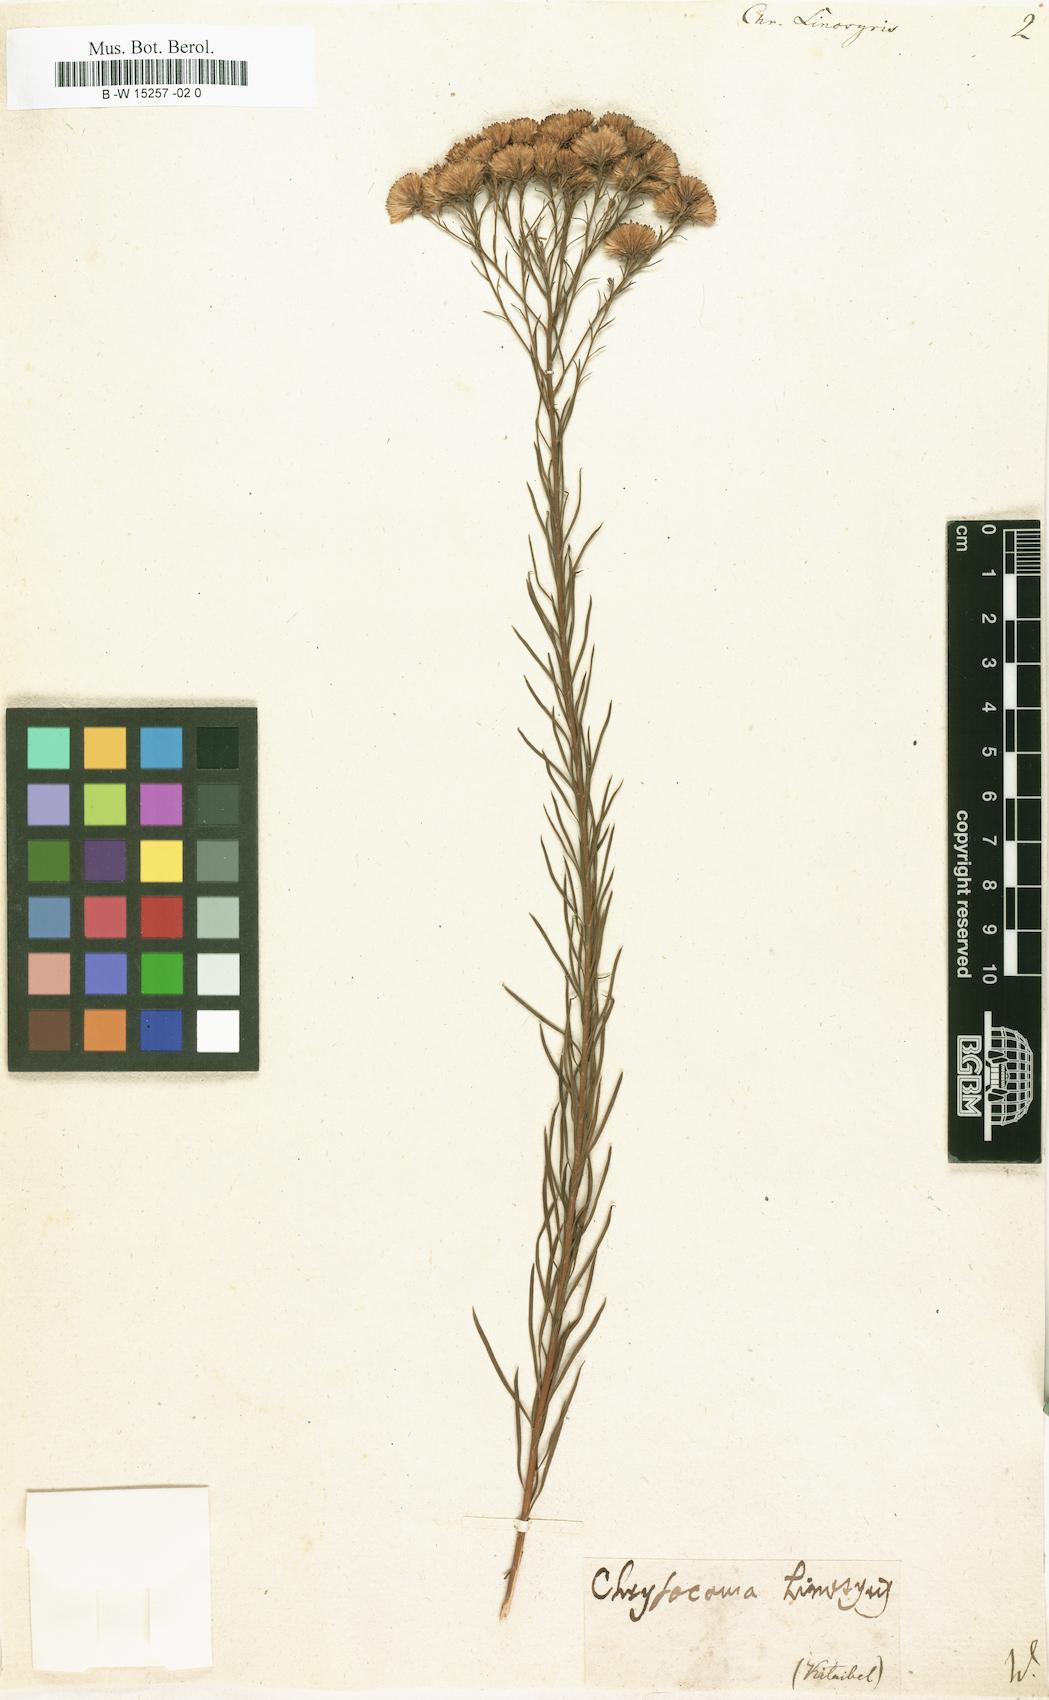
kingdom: Plantae
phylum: Tracheophyta
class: Magnoliopsida
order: Asterales
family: Asteraceae
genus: Galatella
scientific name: Galatella linosyris
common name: Goldilocks aster
